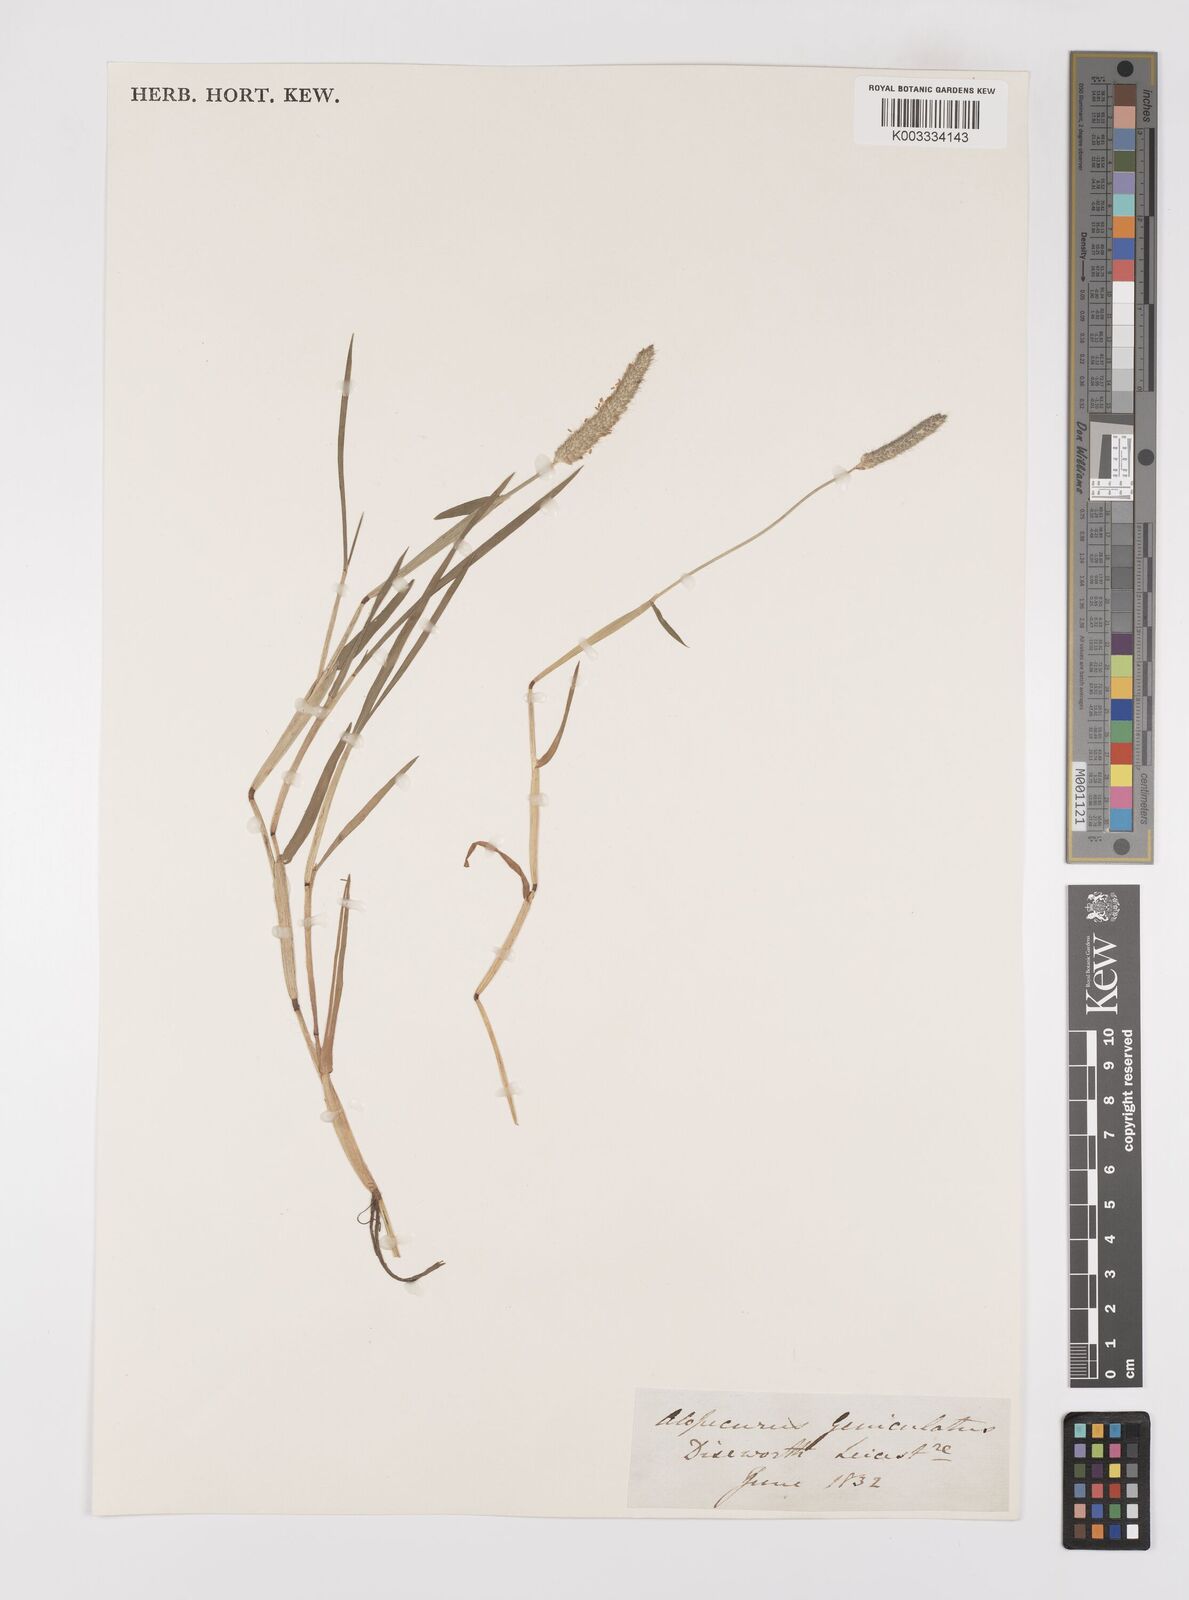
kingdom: Plantae
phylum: Tracheophyta
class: Liliopsida
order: Poales
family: Poaceae
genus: Alopecurus
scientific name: Alopecurus geniculatus
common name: Water foxtail
